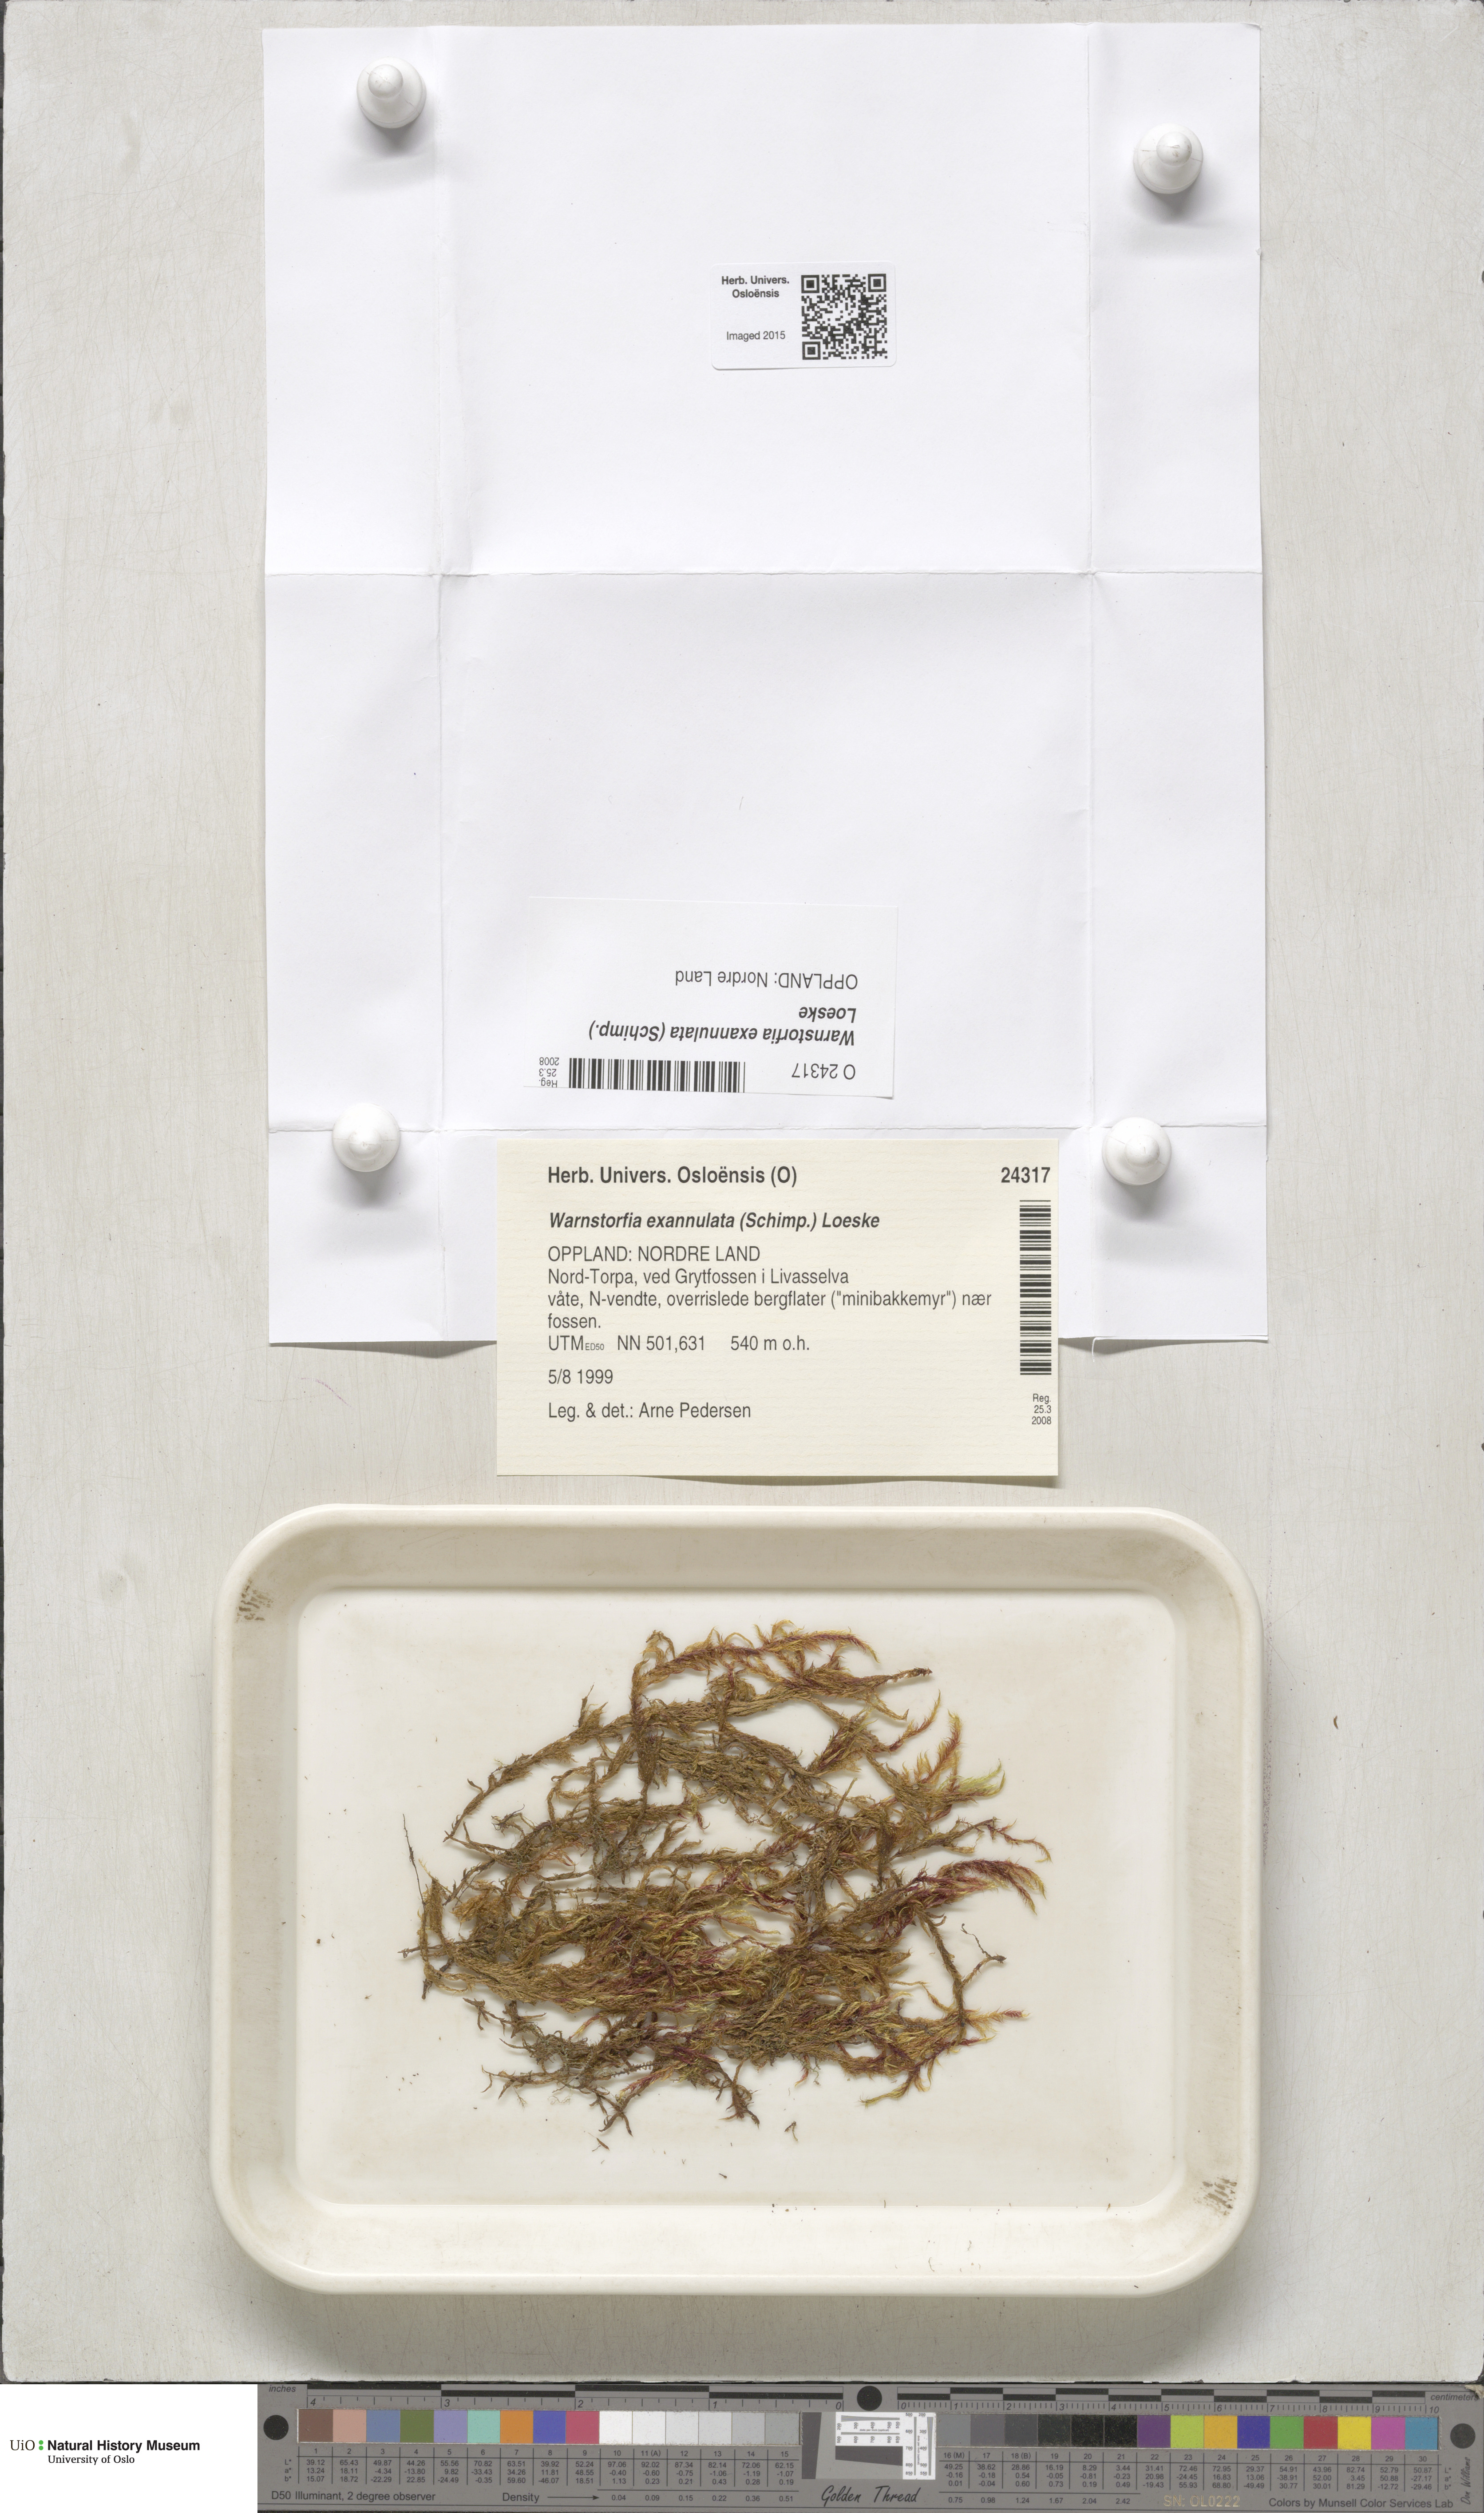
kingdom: Plantae
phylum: Bryophyta
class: Bryopsida
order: Hypnales
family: Calliergonaceae
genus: Sarmentypnum
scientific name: Sarmentypnum exannulatum
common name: Ringless spoon moss
